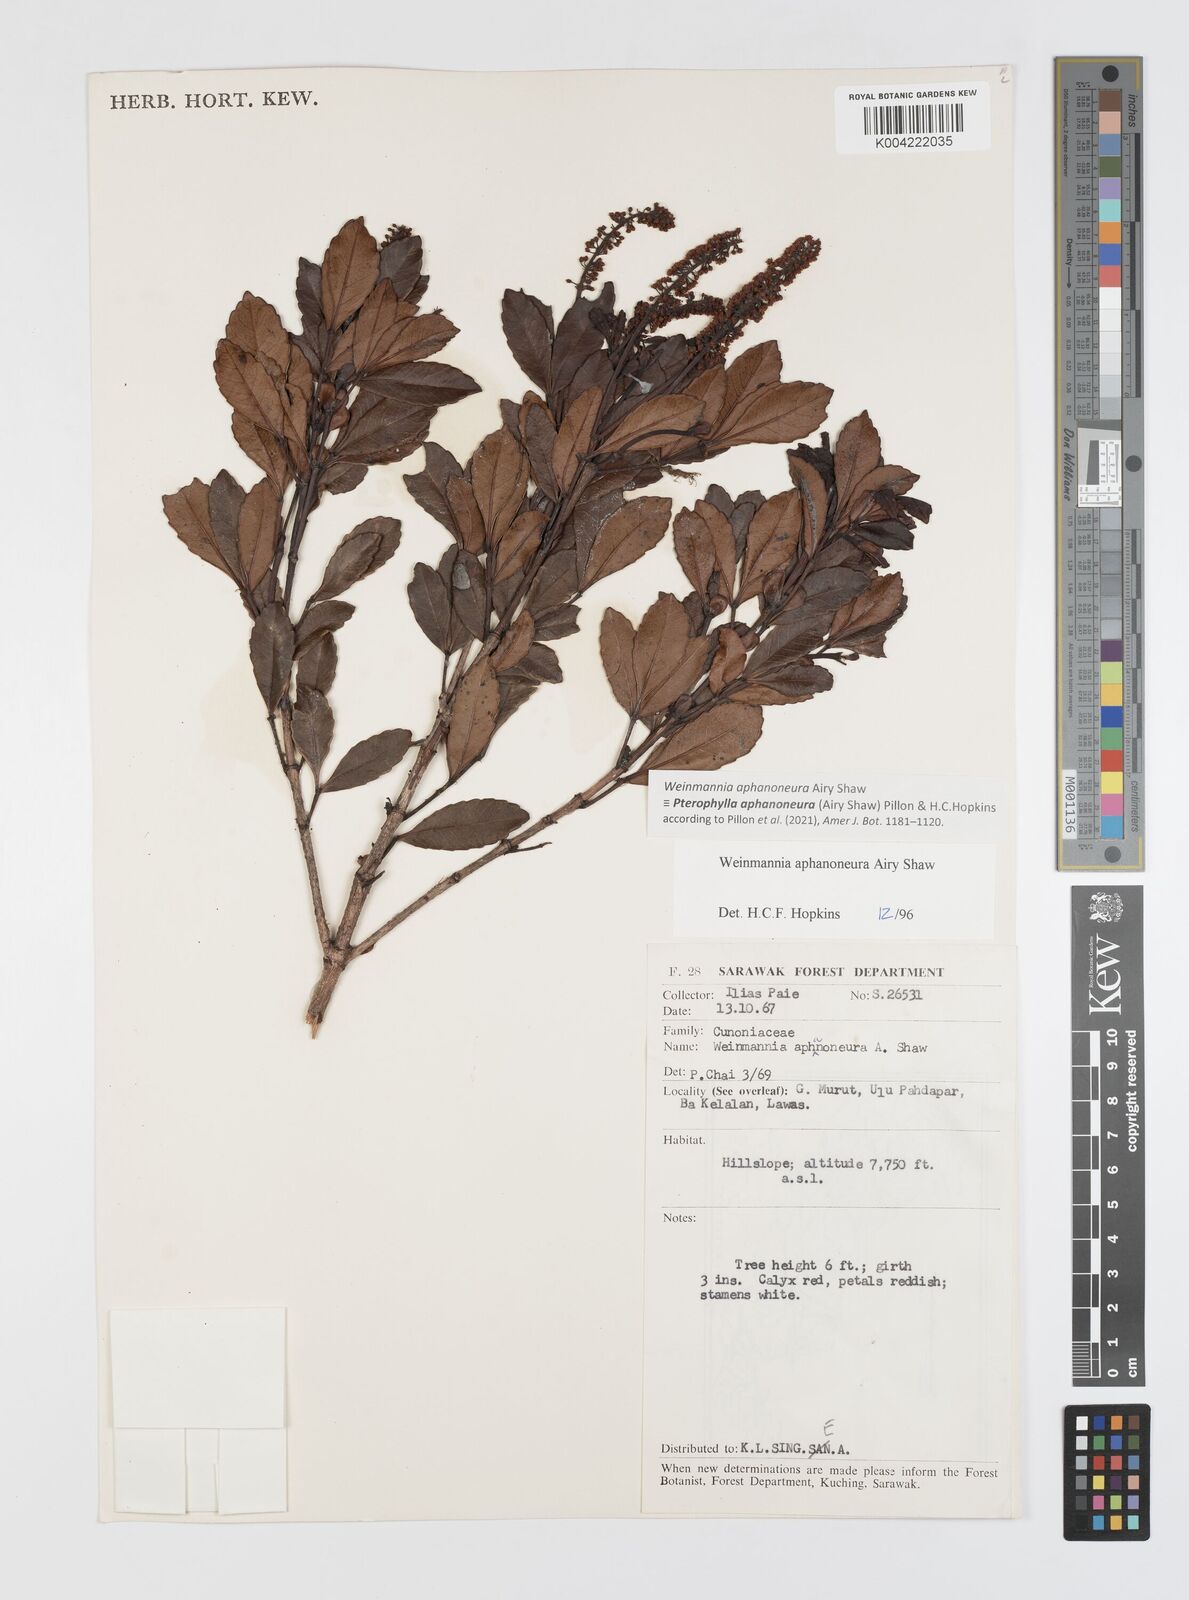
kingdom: Plantae
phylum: Tracheophyta
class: Magnoliopsida
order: Oxalidales
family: Cunoniaceae
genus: Pterophylla
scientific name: Pterophylla aphanoneura
